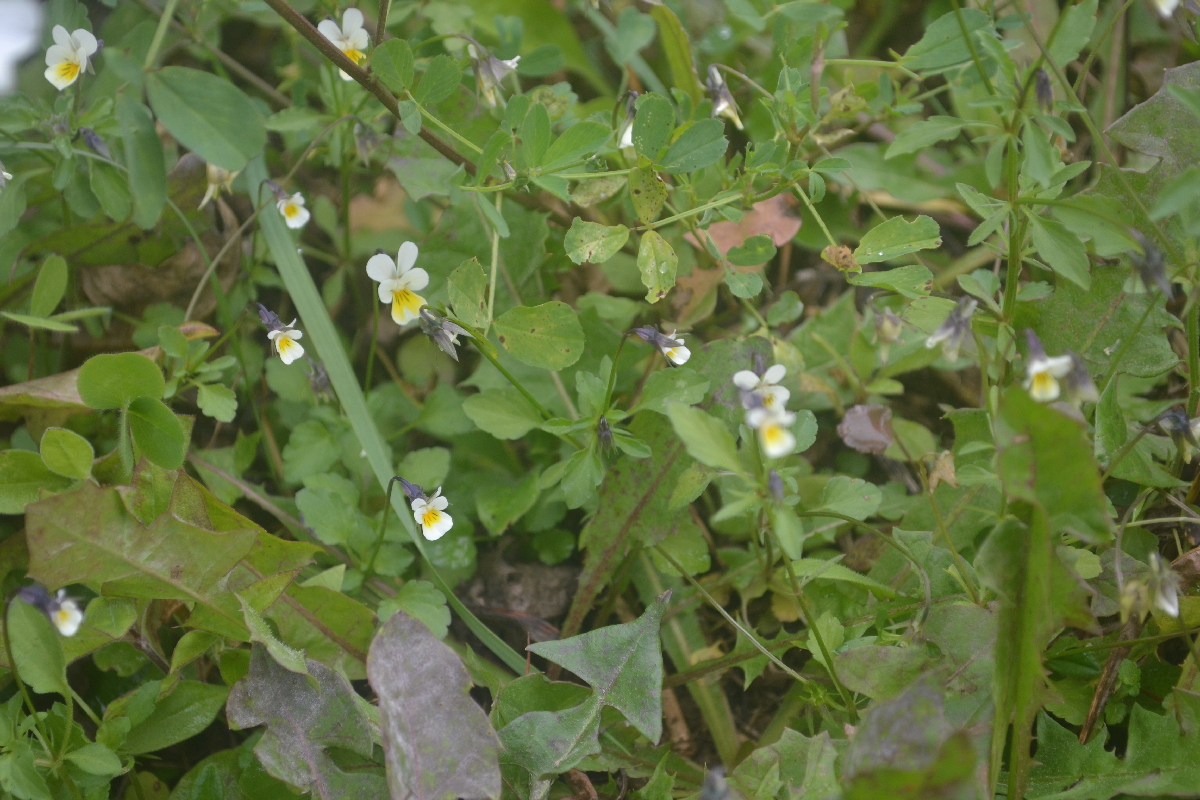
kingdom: Plantae
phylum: Tracheophyta
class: Magnoliopsida
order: Malpighiales
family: Violaceae
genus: Viola
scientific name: Viola arvensis
